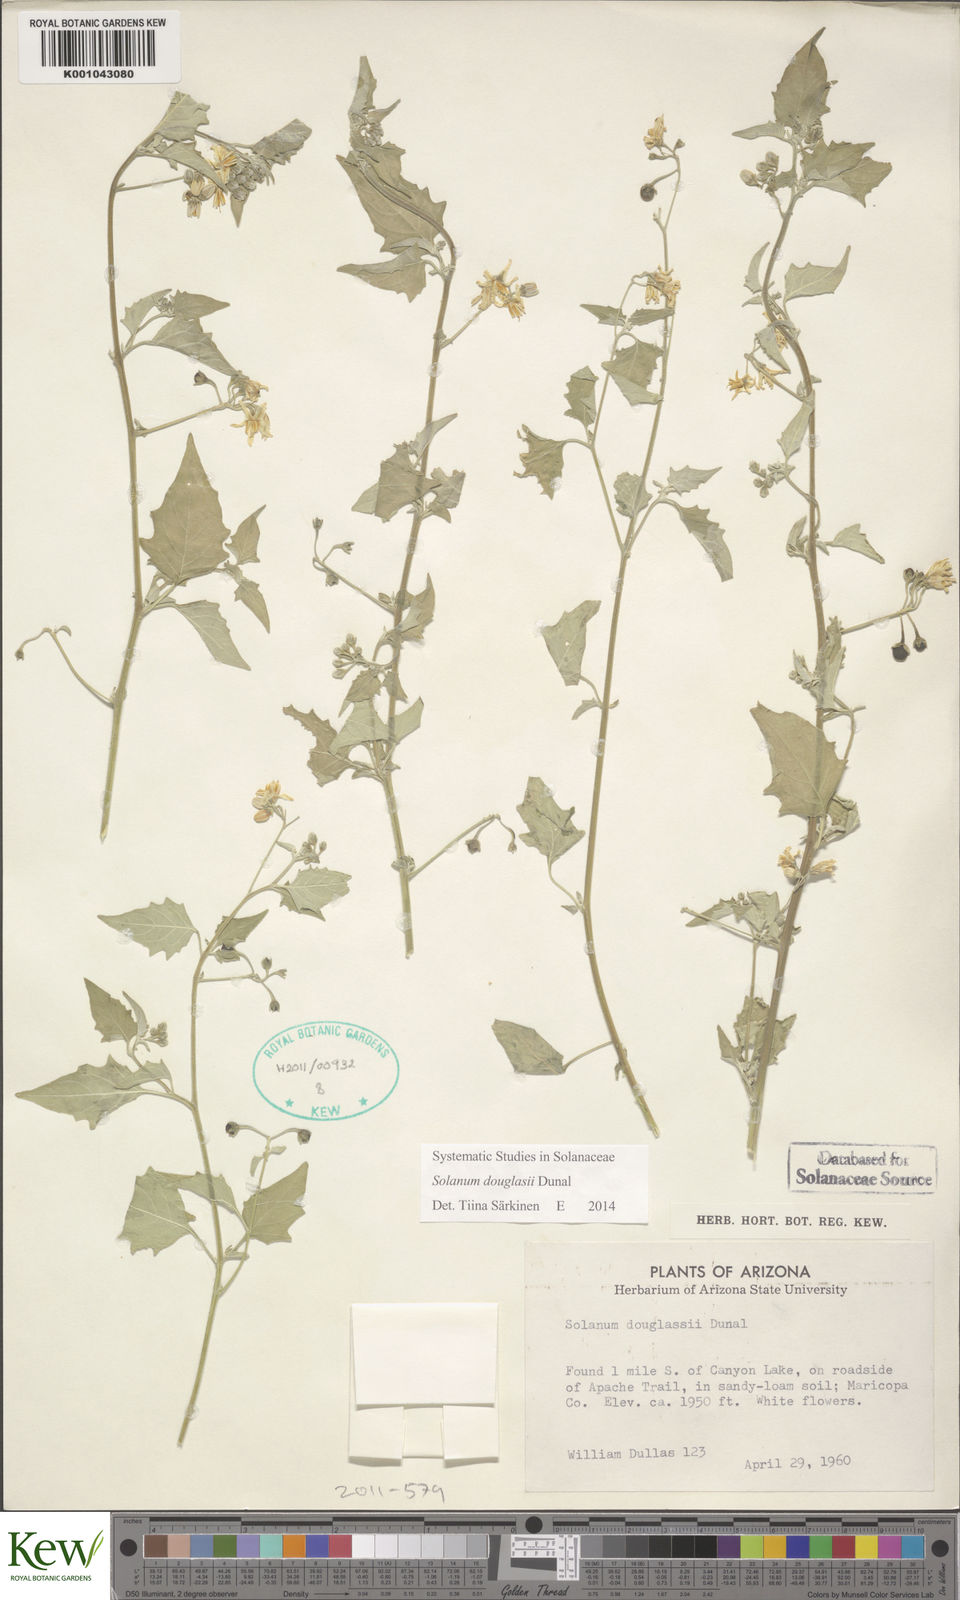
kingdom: Plantae
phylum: Tracheophyta
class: Magnoliopsida
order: Solanales
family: Solanaceae
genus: Solanum
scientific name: Solanum douglasii
